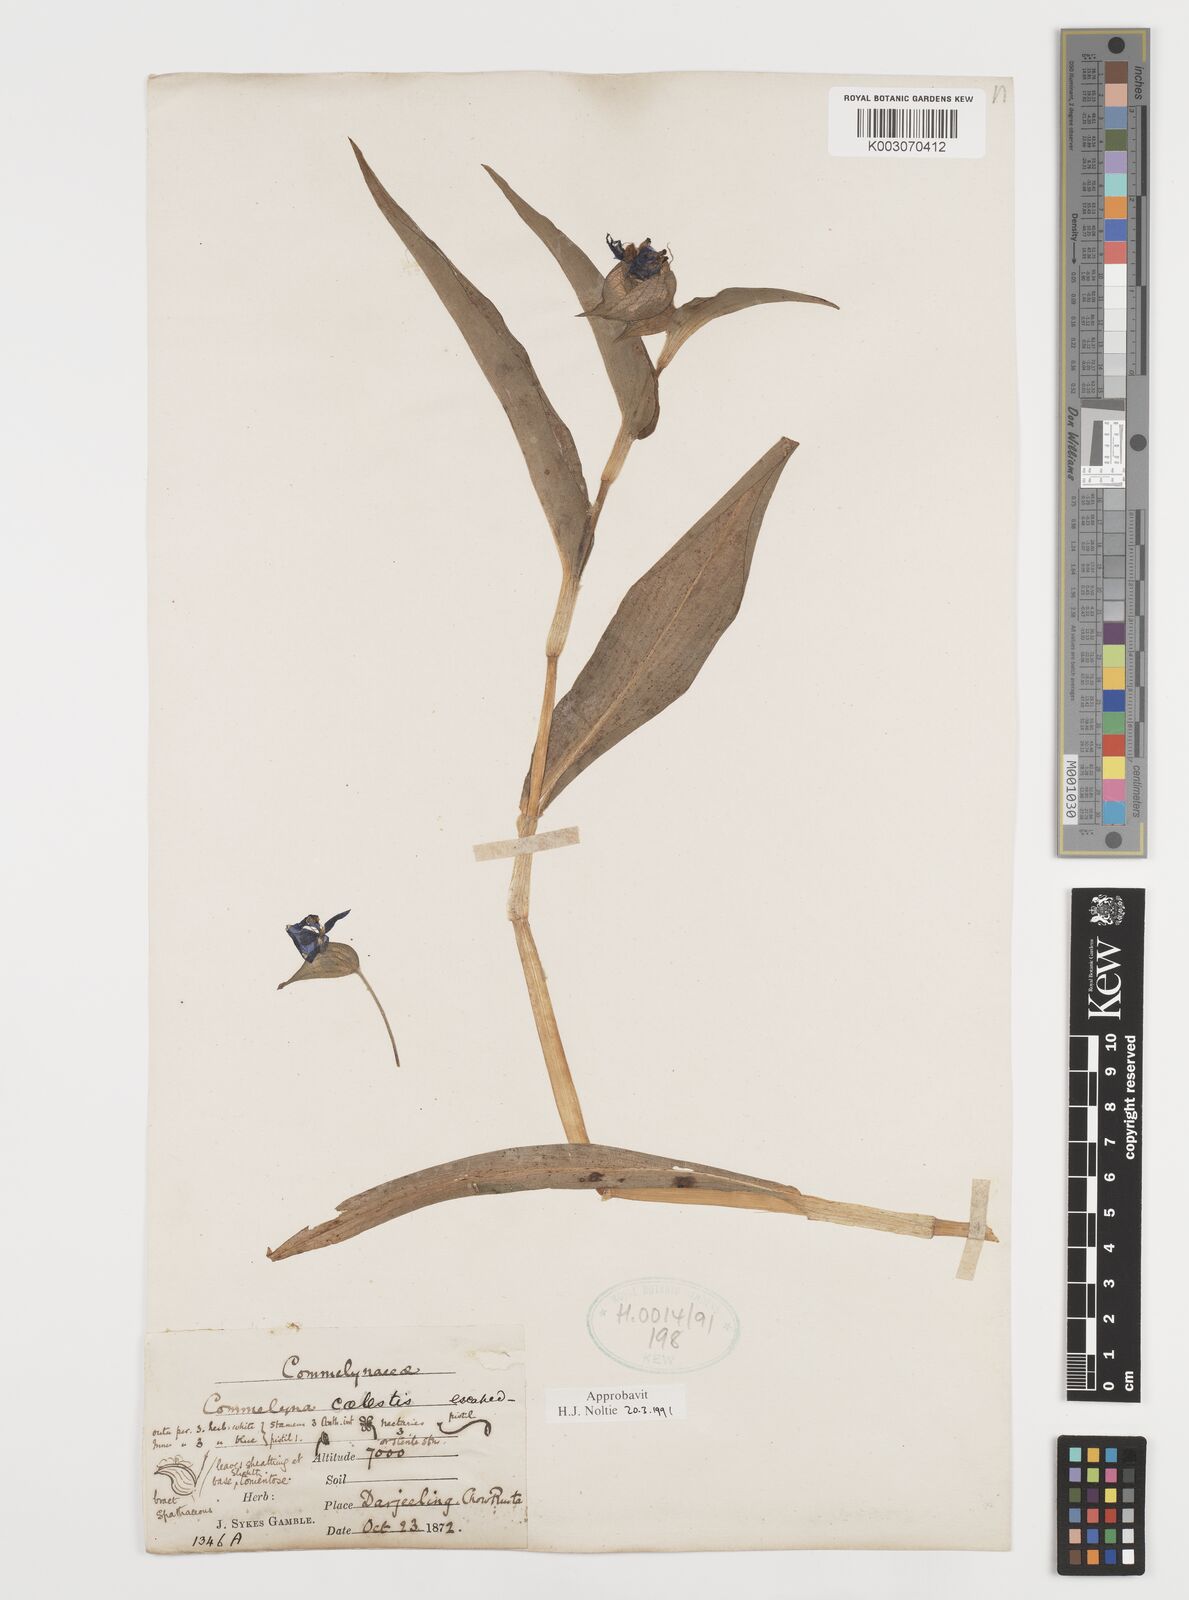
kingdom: Plantae
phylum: Tracheophyta
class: Liliopsida
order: Commelinales
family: Commelinaceae
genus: Commelina
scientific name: Commelina tuberosa
